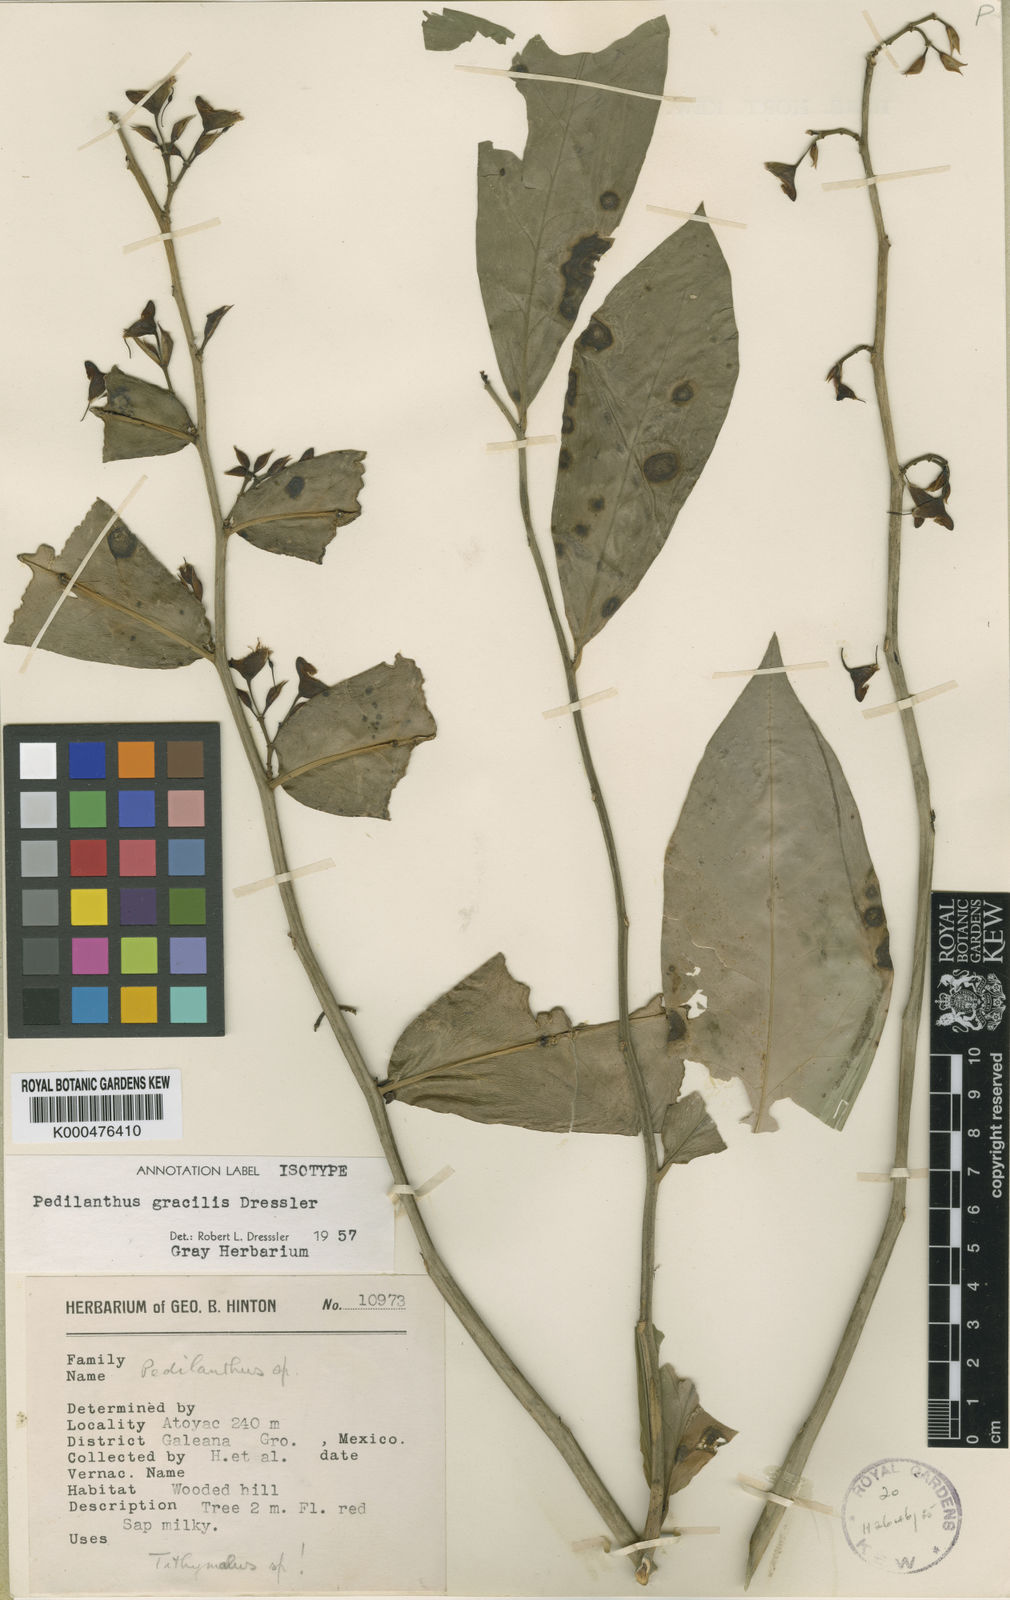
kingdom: Plantae
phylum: Tracheophyta
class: Magnoliopsida
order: Malpighiales
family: Euphorbiaceae
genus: Euphorbia
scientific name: Euphorbia dressleri
